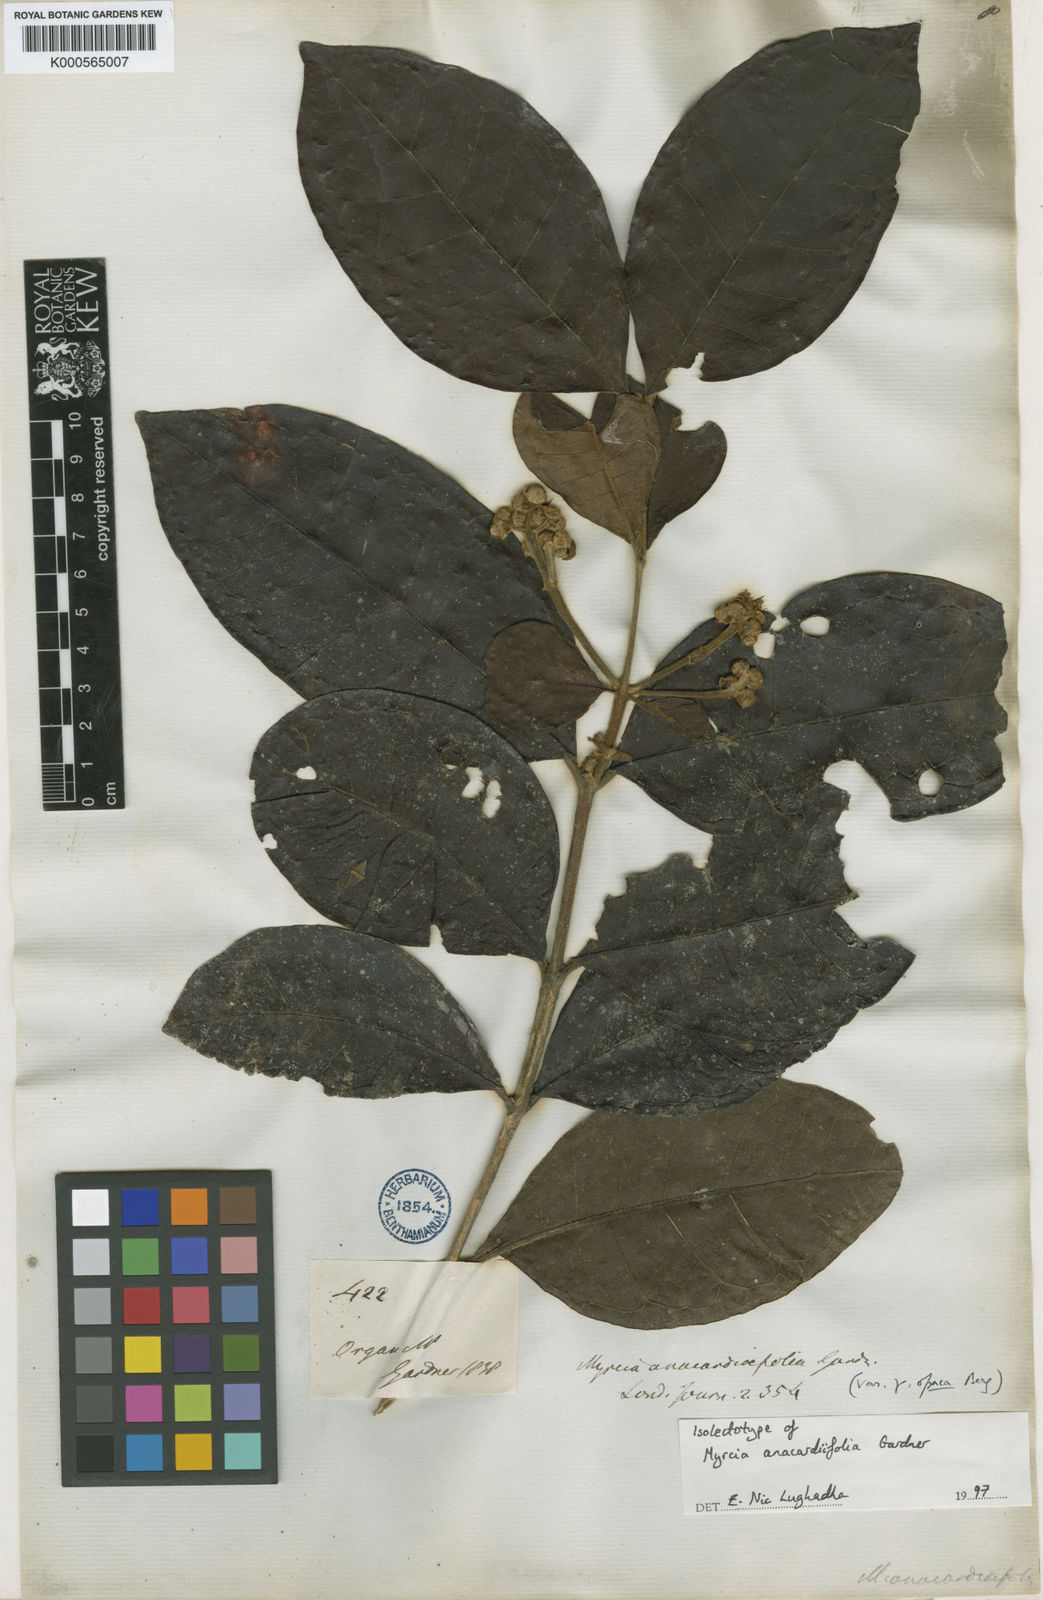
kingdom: Plantae
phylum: Tracheophyta
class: Magnoliopsida
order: Myrtales
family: Myrtaceae
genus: Myrcia
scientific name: Myrcia anacardiifolia
